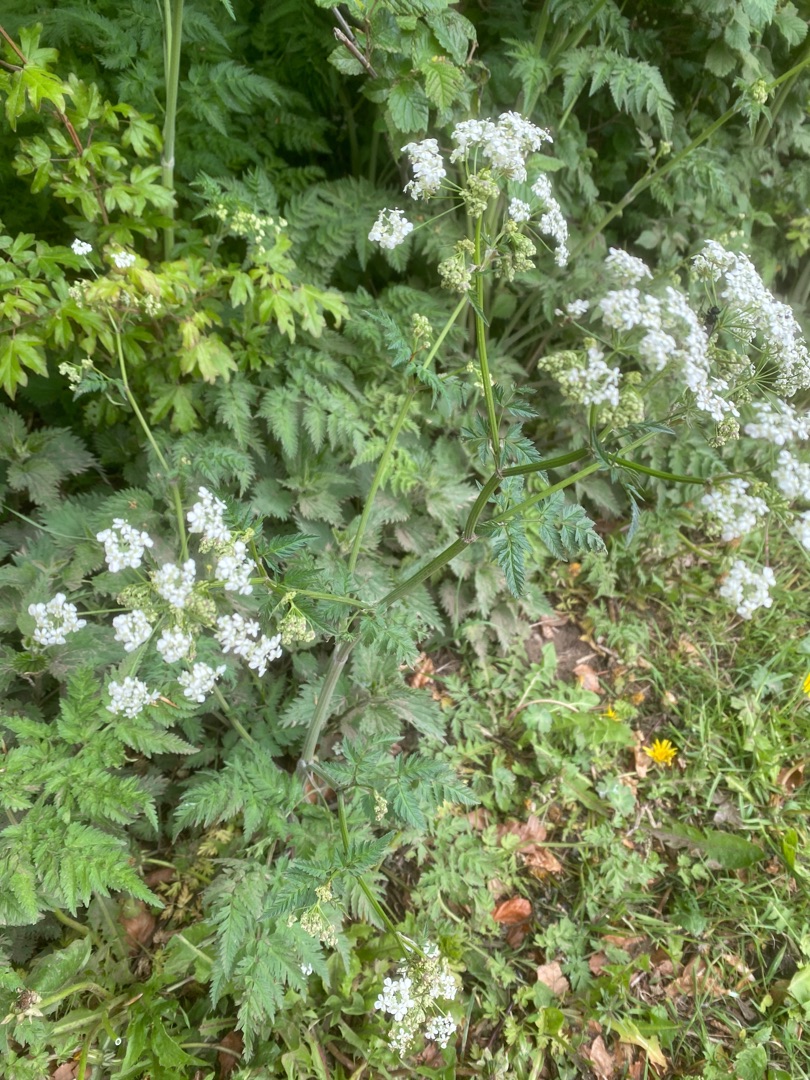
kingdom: Plantae
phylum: Tracheophyta
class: Magnoliopsida
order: Apiales
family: Apiaceae
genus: Anthriscus
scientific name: Anthriscus sylvestris
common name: Vild kørvel
